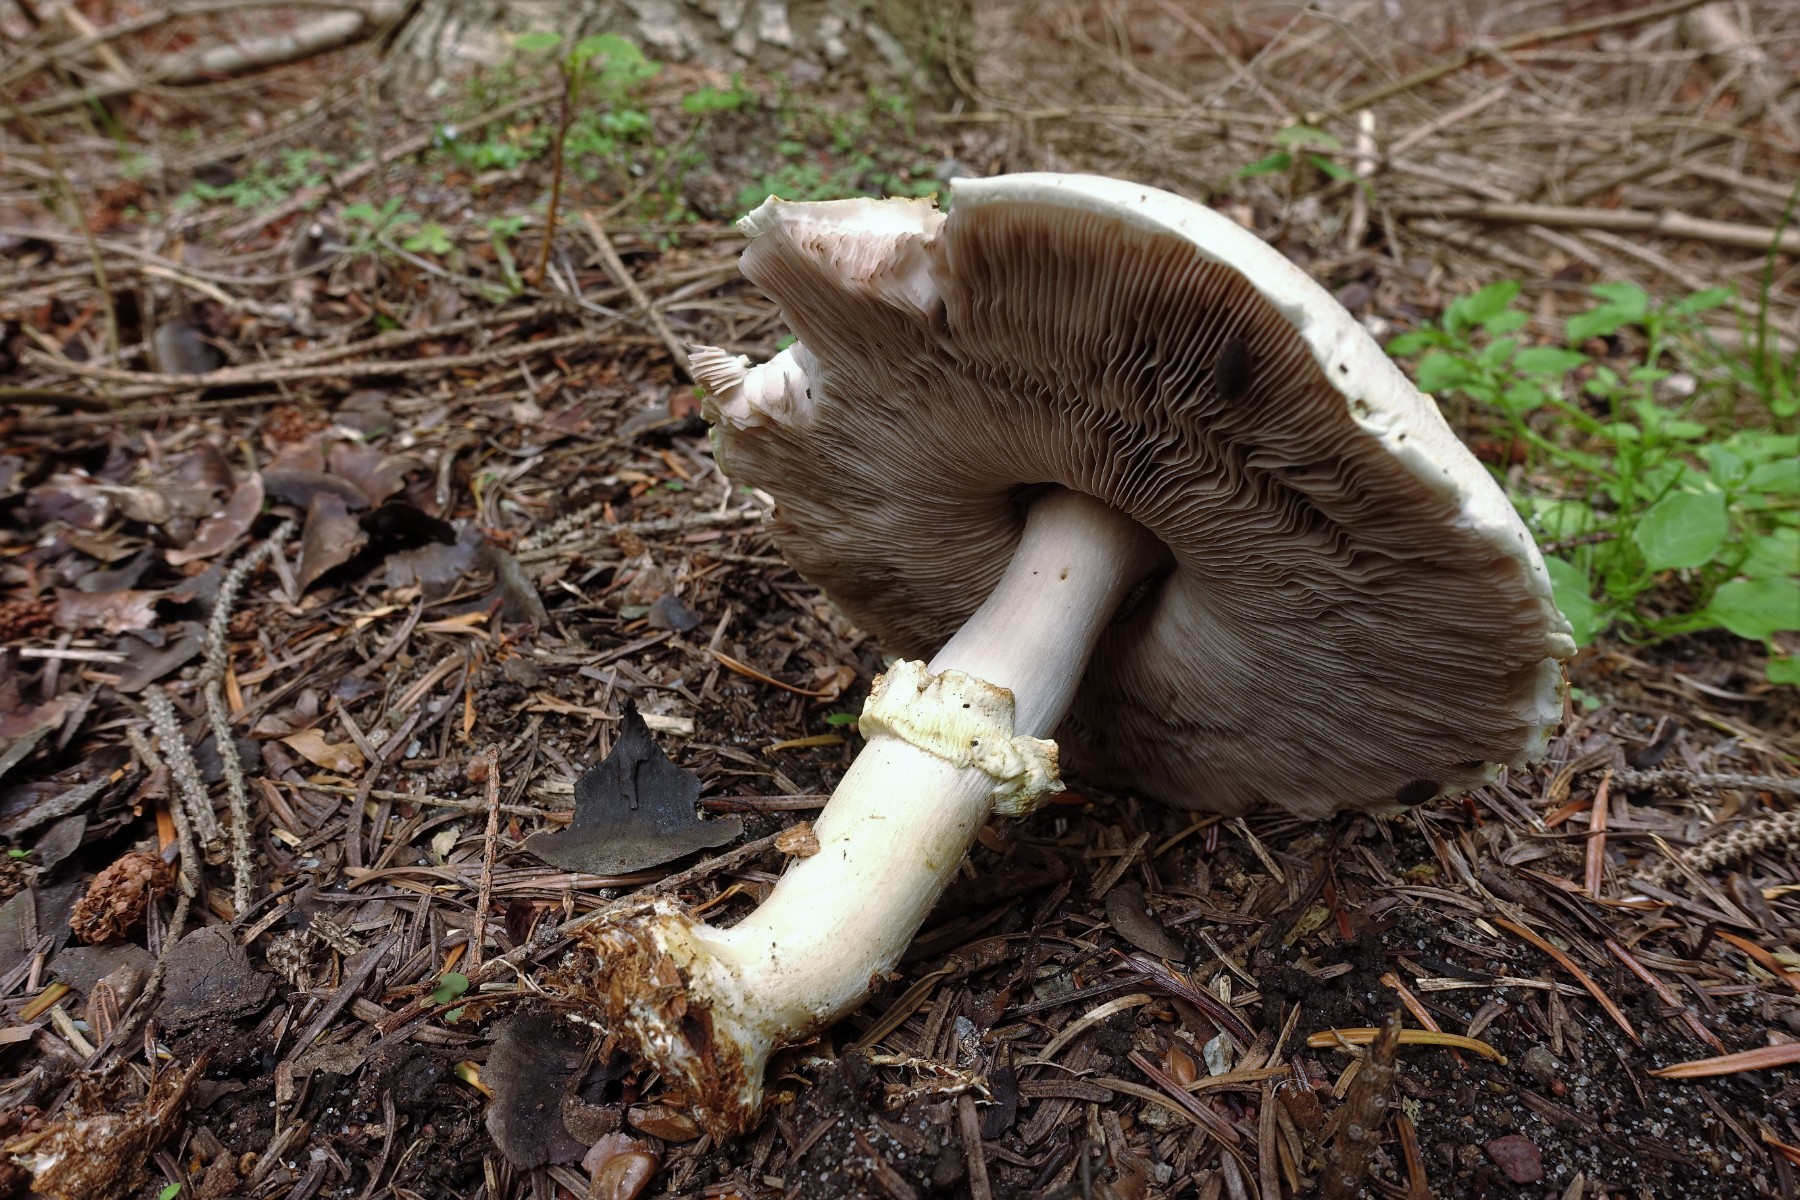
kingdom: Fungi
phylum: Basidiomycota
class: Agaricomycetes
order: Agaricales
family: Agaricaceae
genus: Agaricus
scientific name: Agaricus sylvicola
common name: skiveknoldet champignon
